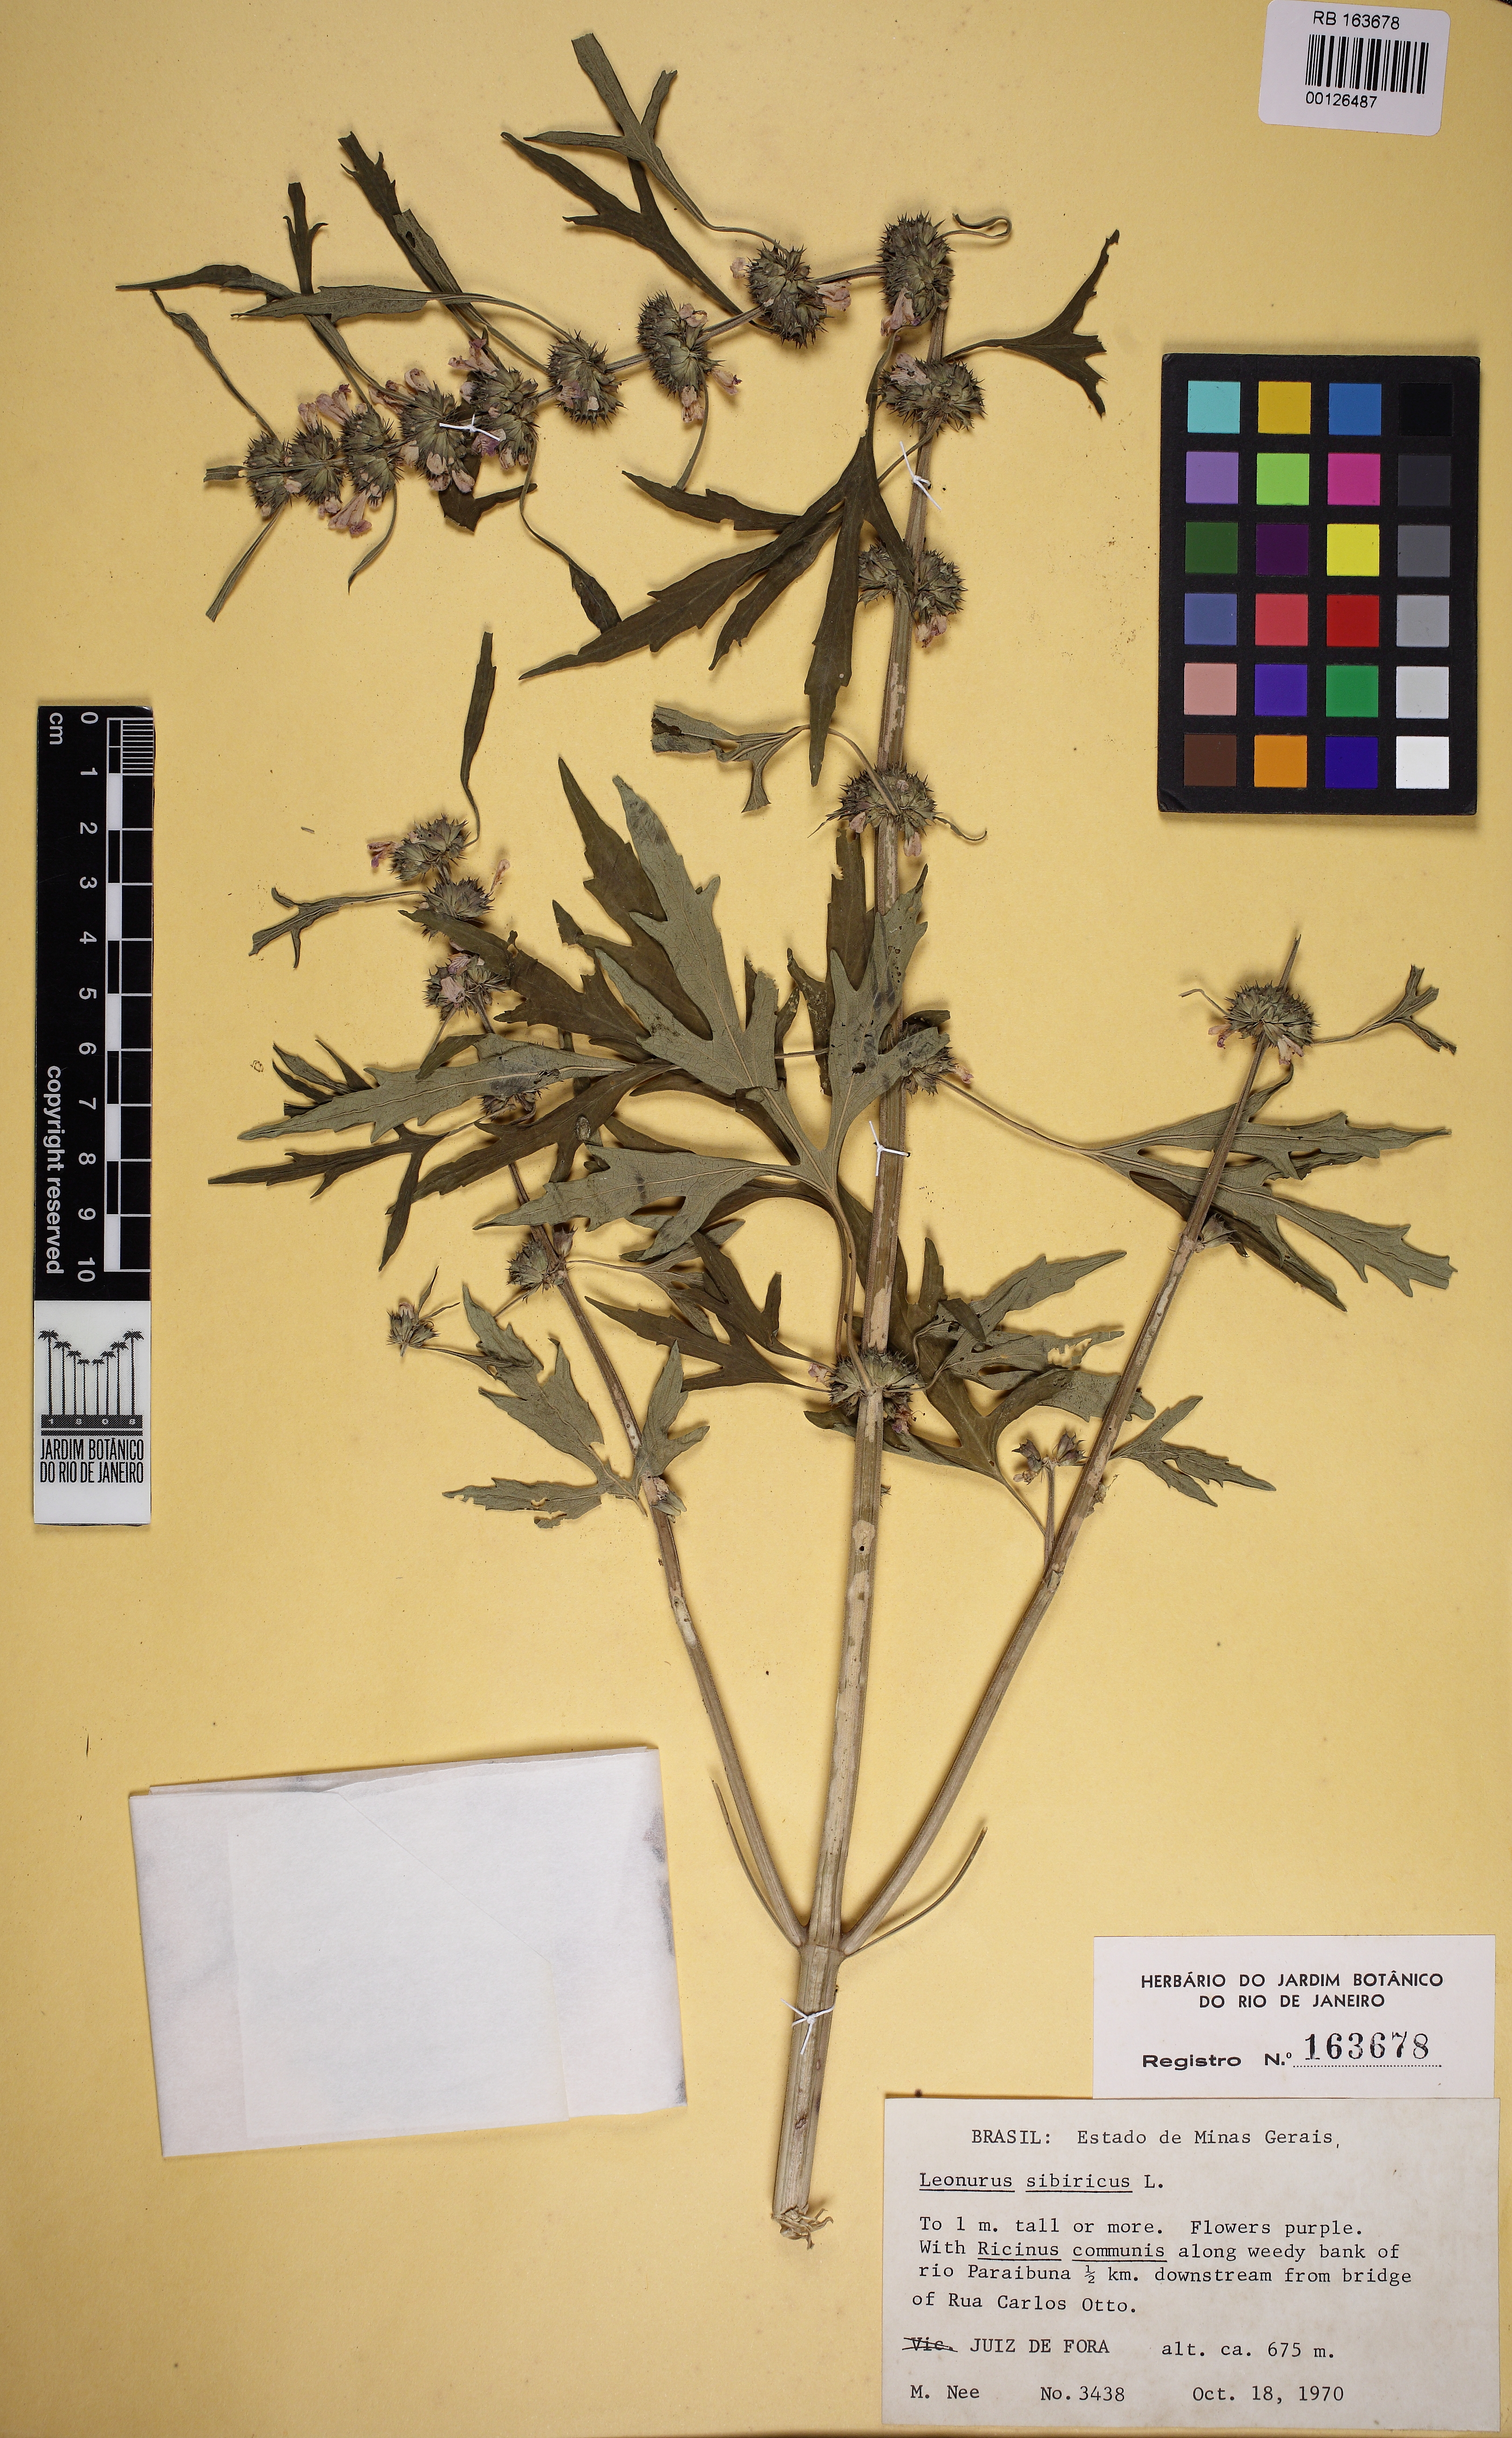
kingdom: Plantae
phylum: Tracheophyta
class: Magnoliopsida
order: Lamiales
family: Lamiaceae
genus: Leonurus
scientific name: Leonurus sibiricus
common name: Honeyweed
